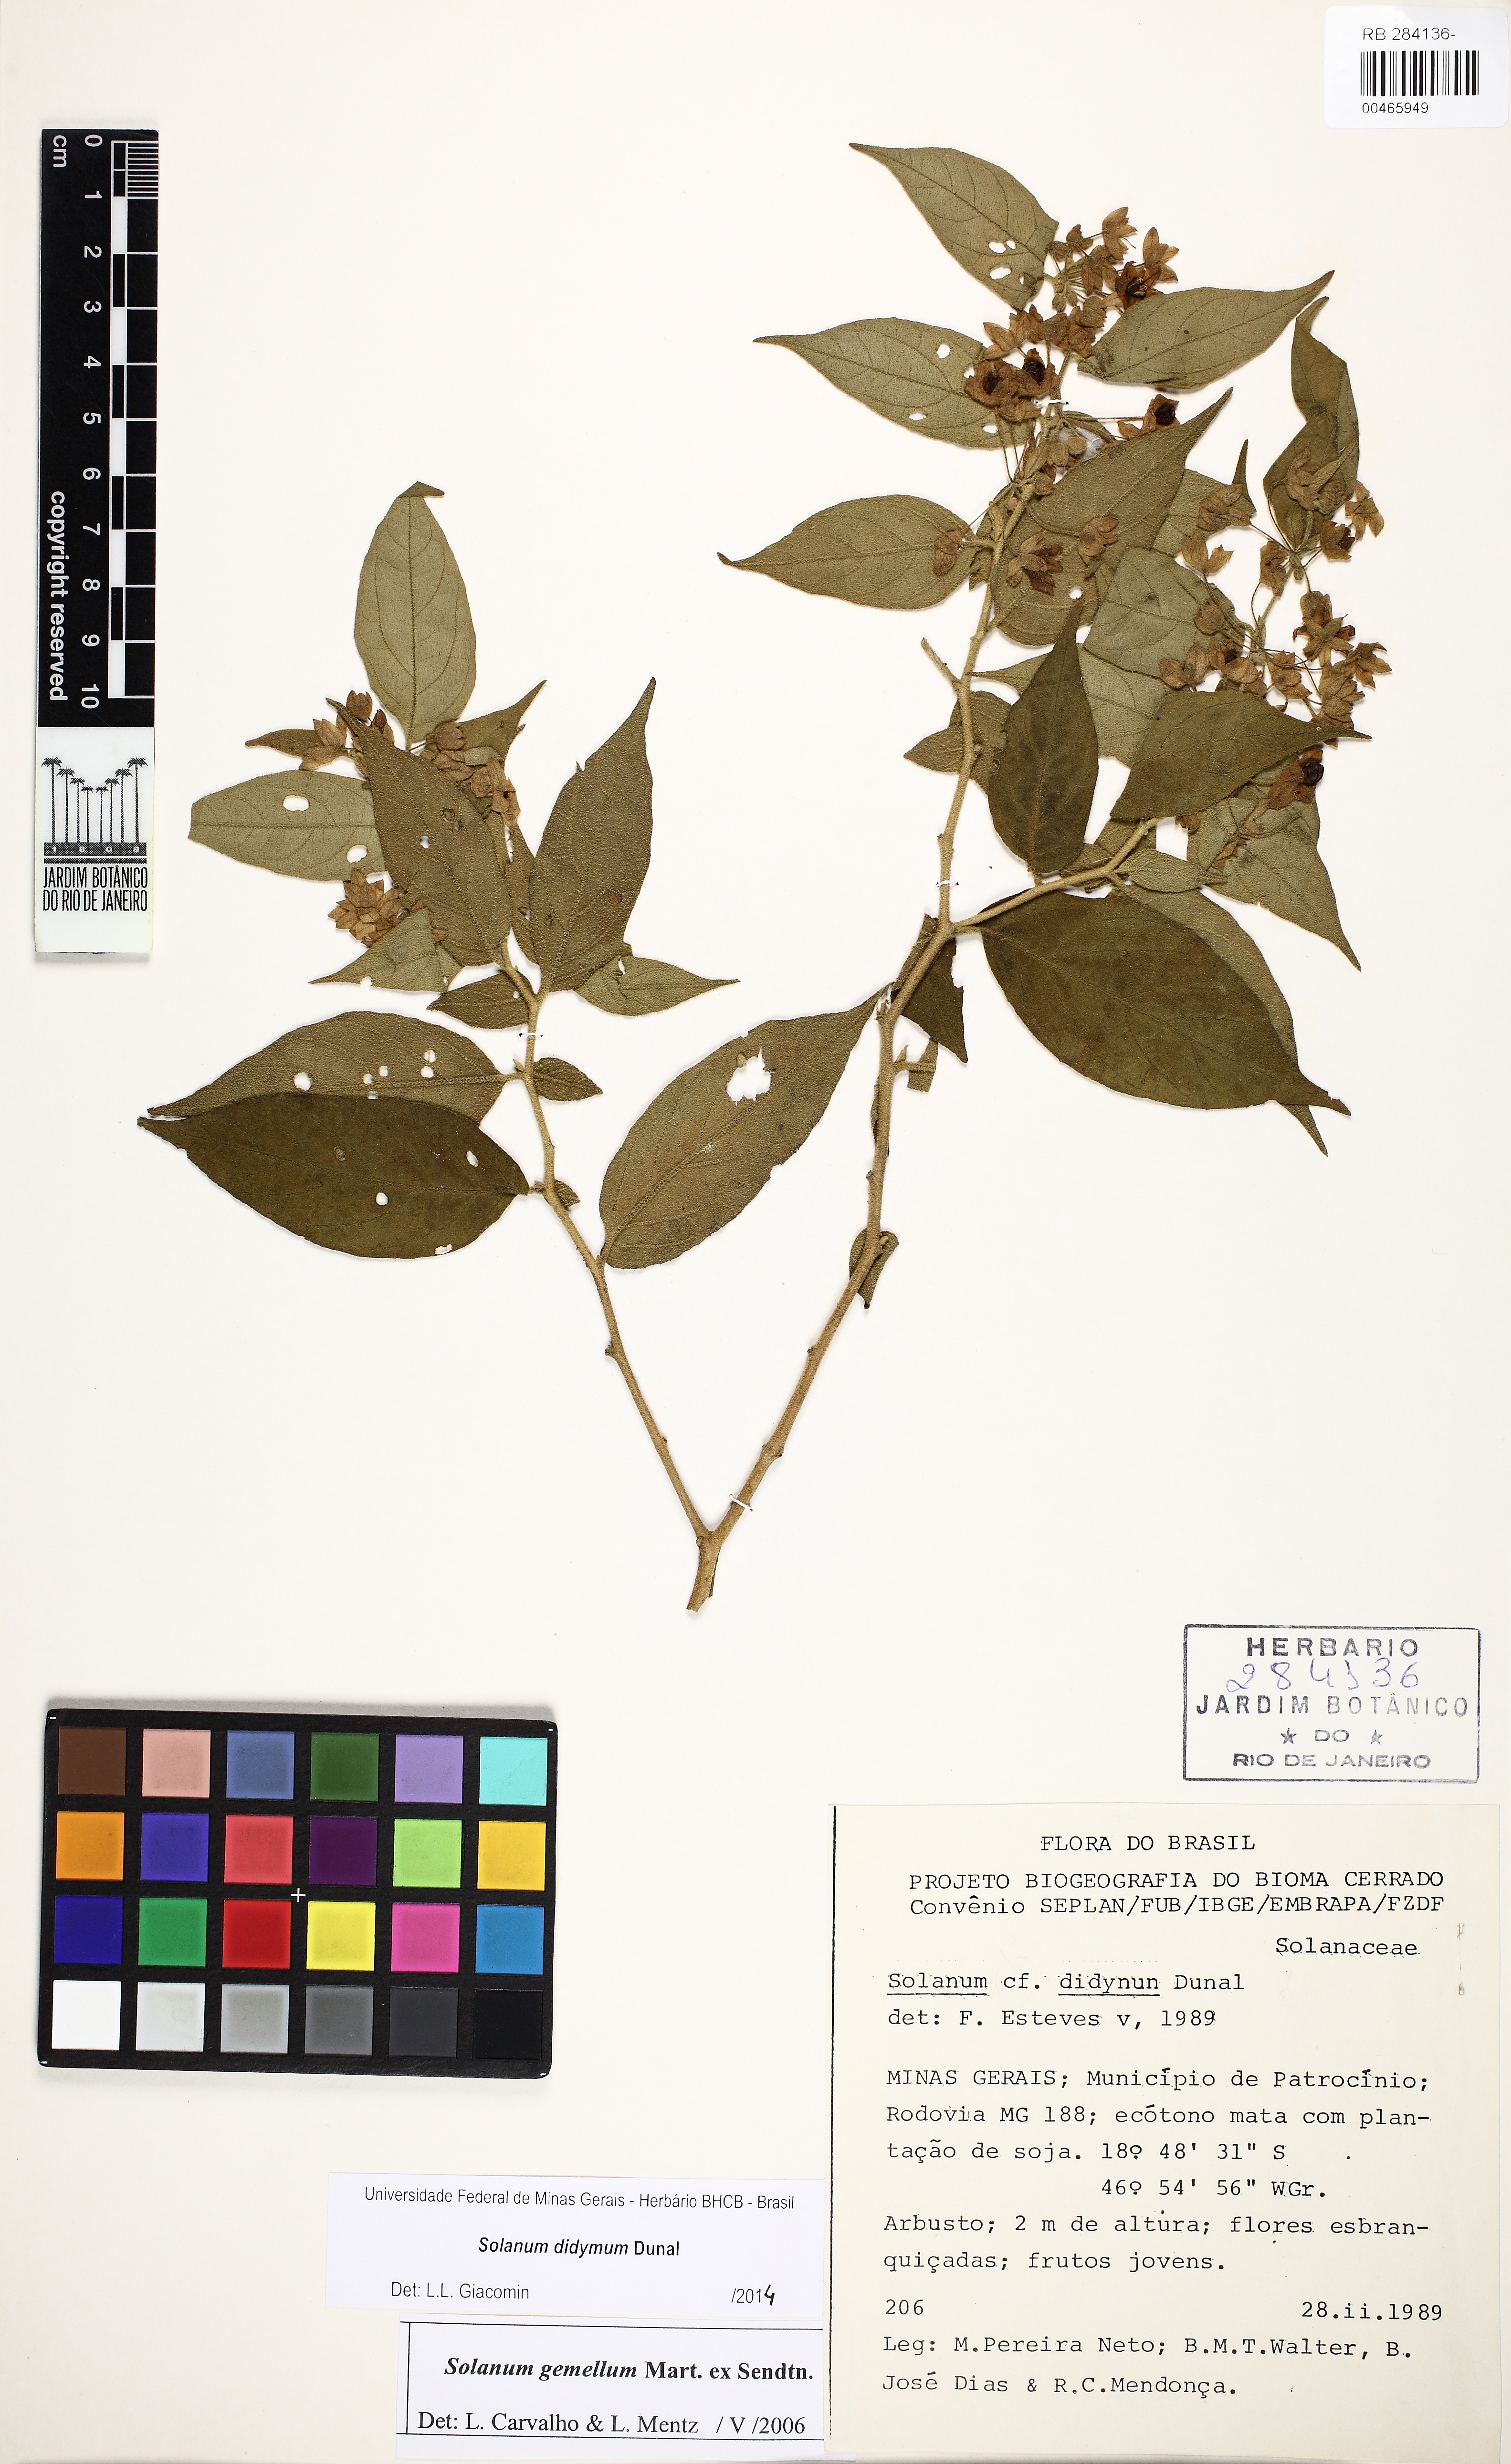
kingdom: Plantae
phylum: Tracheophyta
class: Magnoliopsida
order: Solanales
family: Solanaceae
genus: Solanum
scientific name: Solanum didymum
